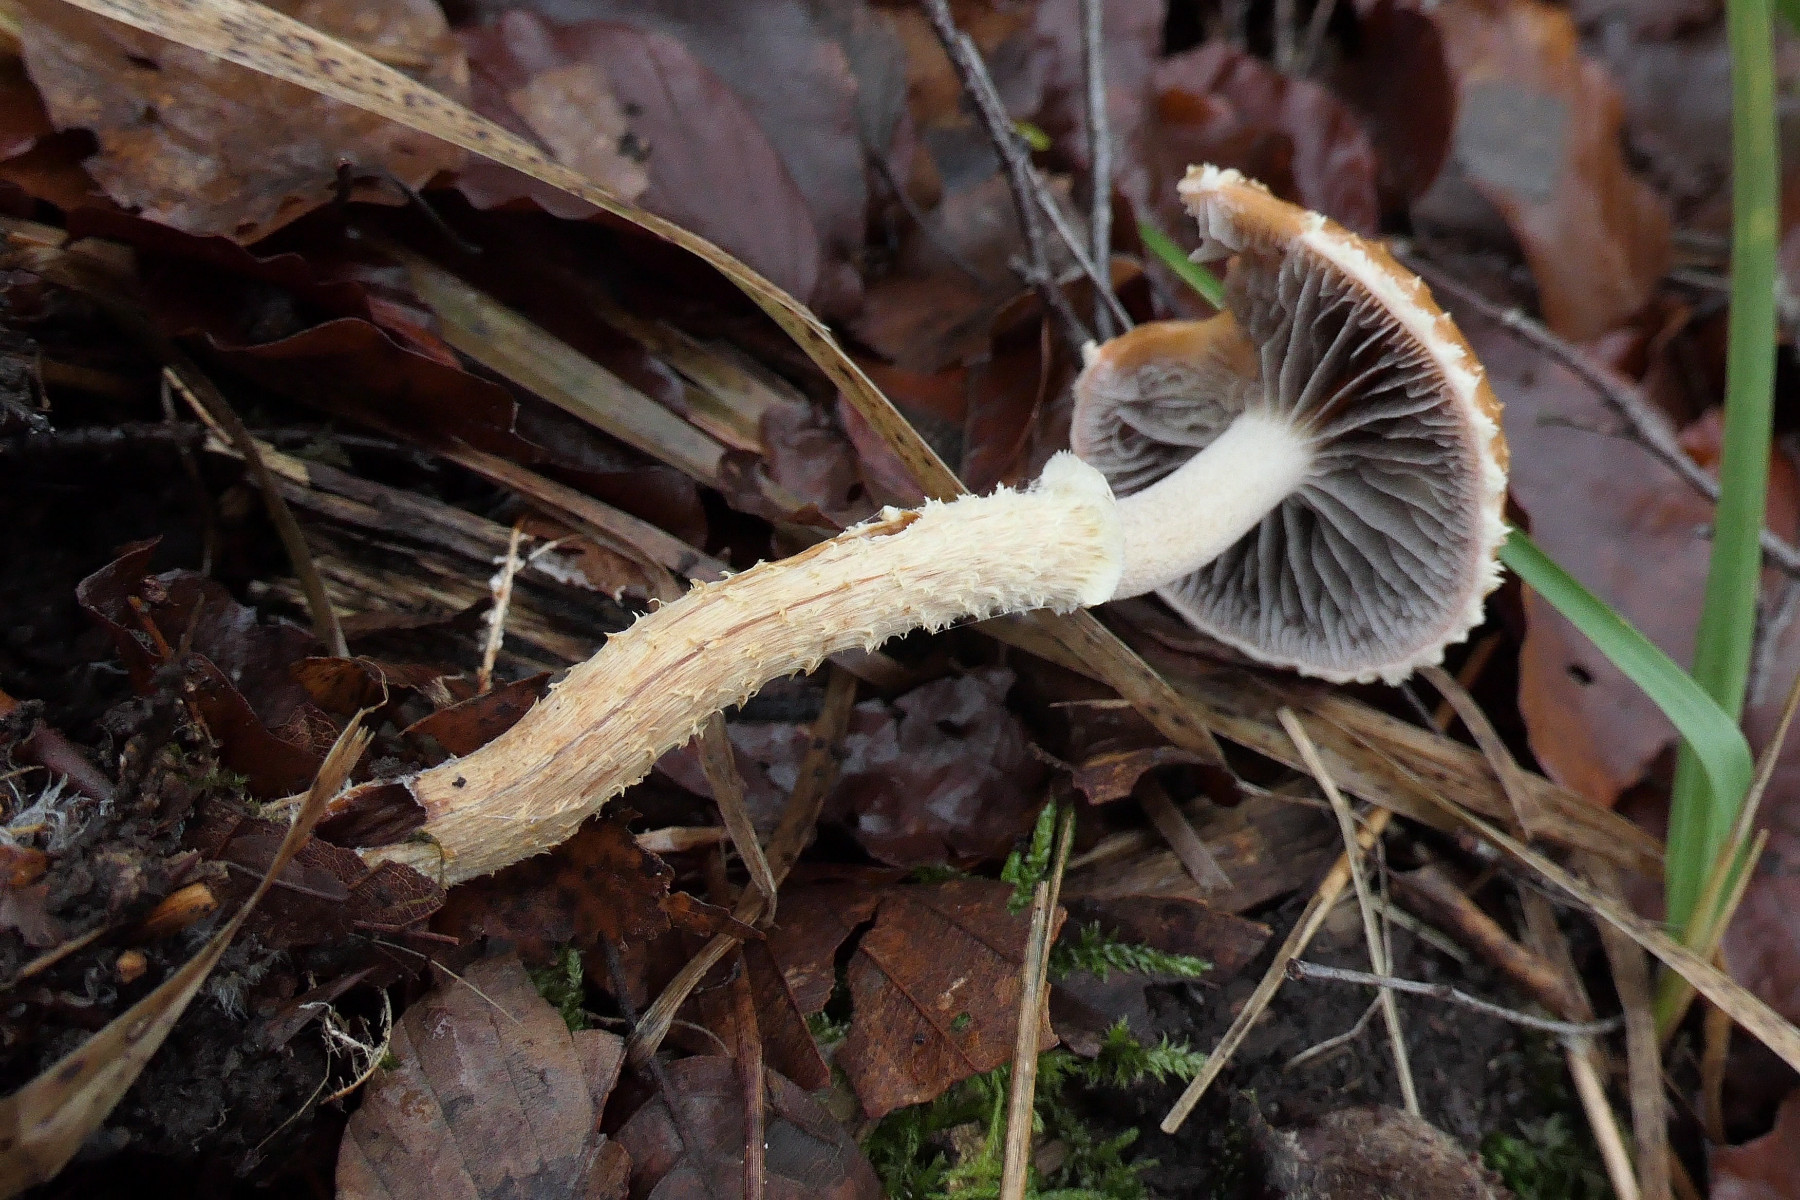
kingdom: Fungi
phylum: Basidiomycota
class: Agaricomycetes
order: Agaricales
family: Strophariaceae
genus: Leratiomyces
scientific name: Leratiomyces squamosus
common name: skællet bredblad
